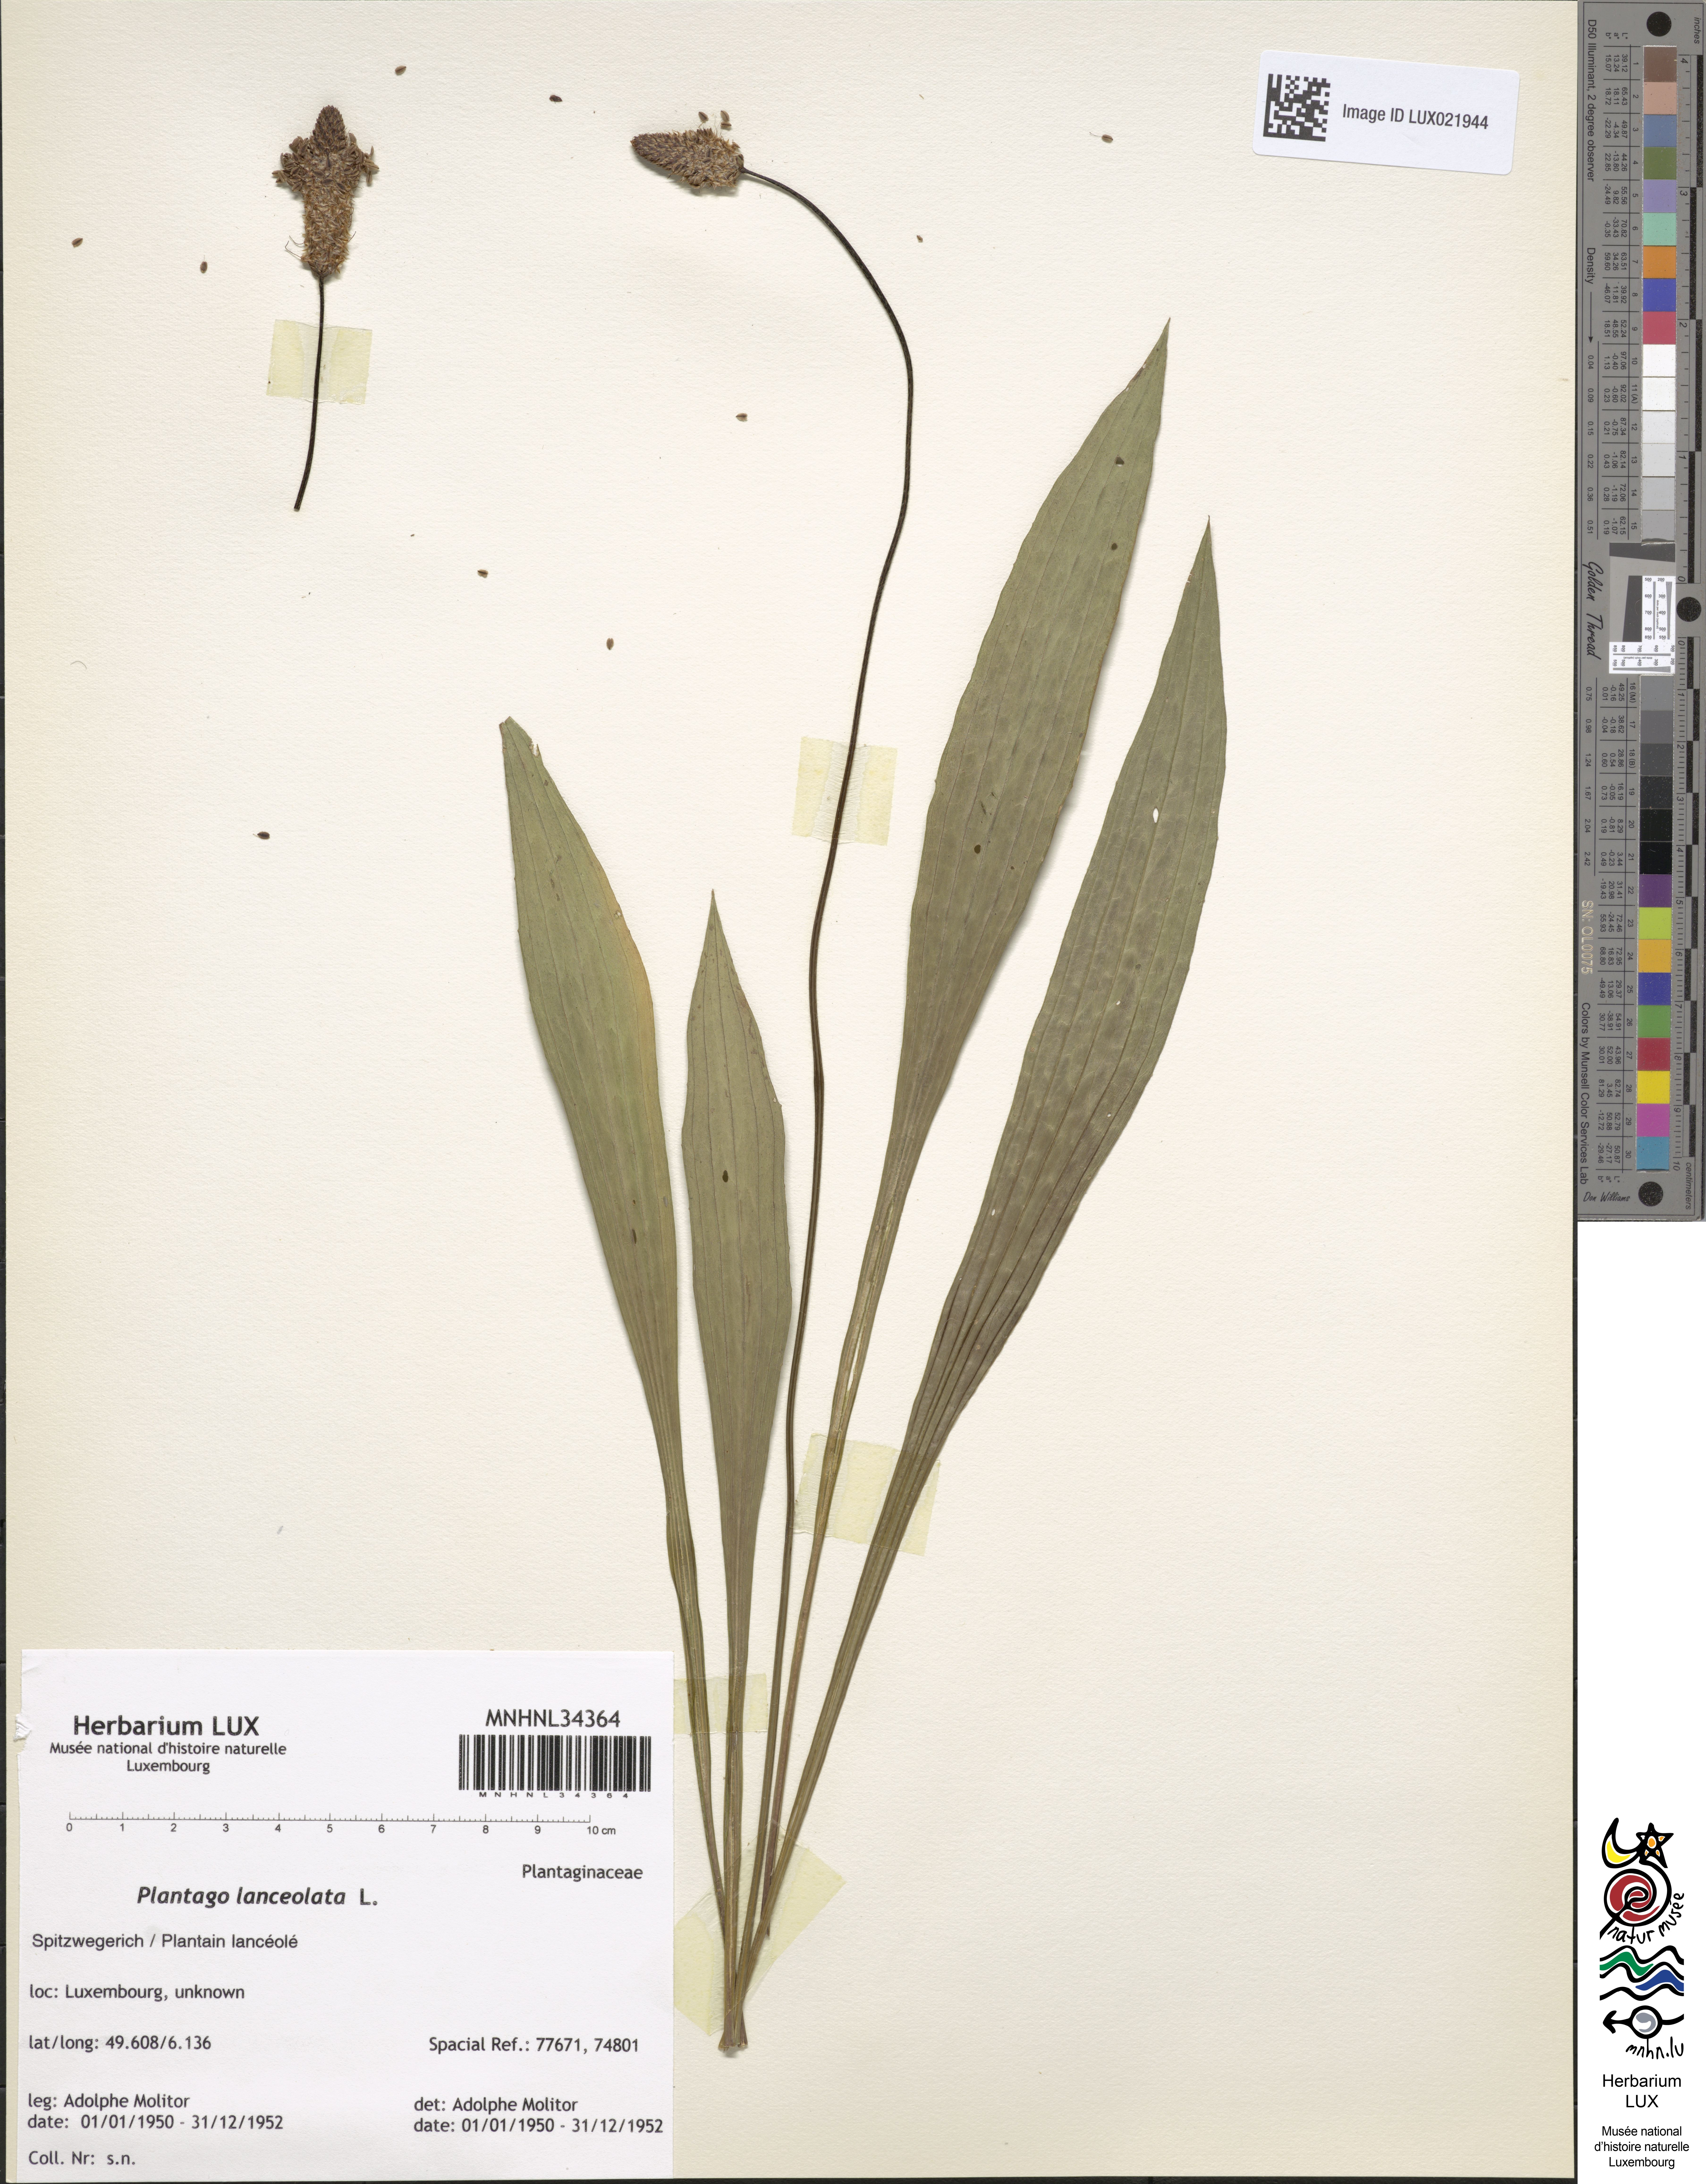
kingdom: Plantae
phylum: Tracheophyta
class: Magnoliopsida
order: Lamiales
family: Plantaginaceae
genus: Plantago
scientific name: Plantago lanceolata
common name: Ribwort plantain
